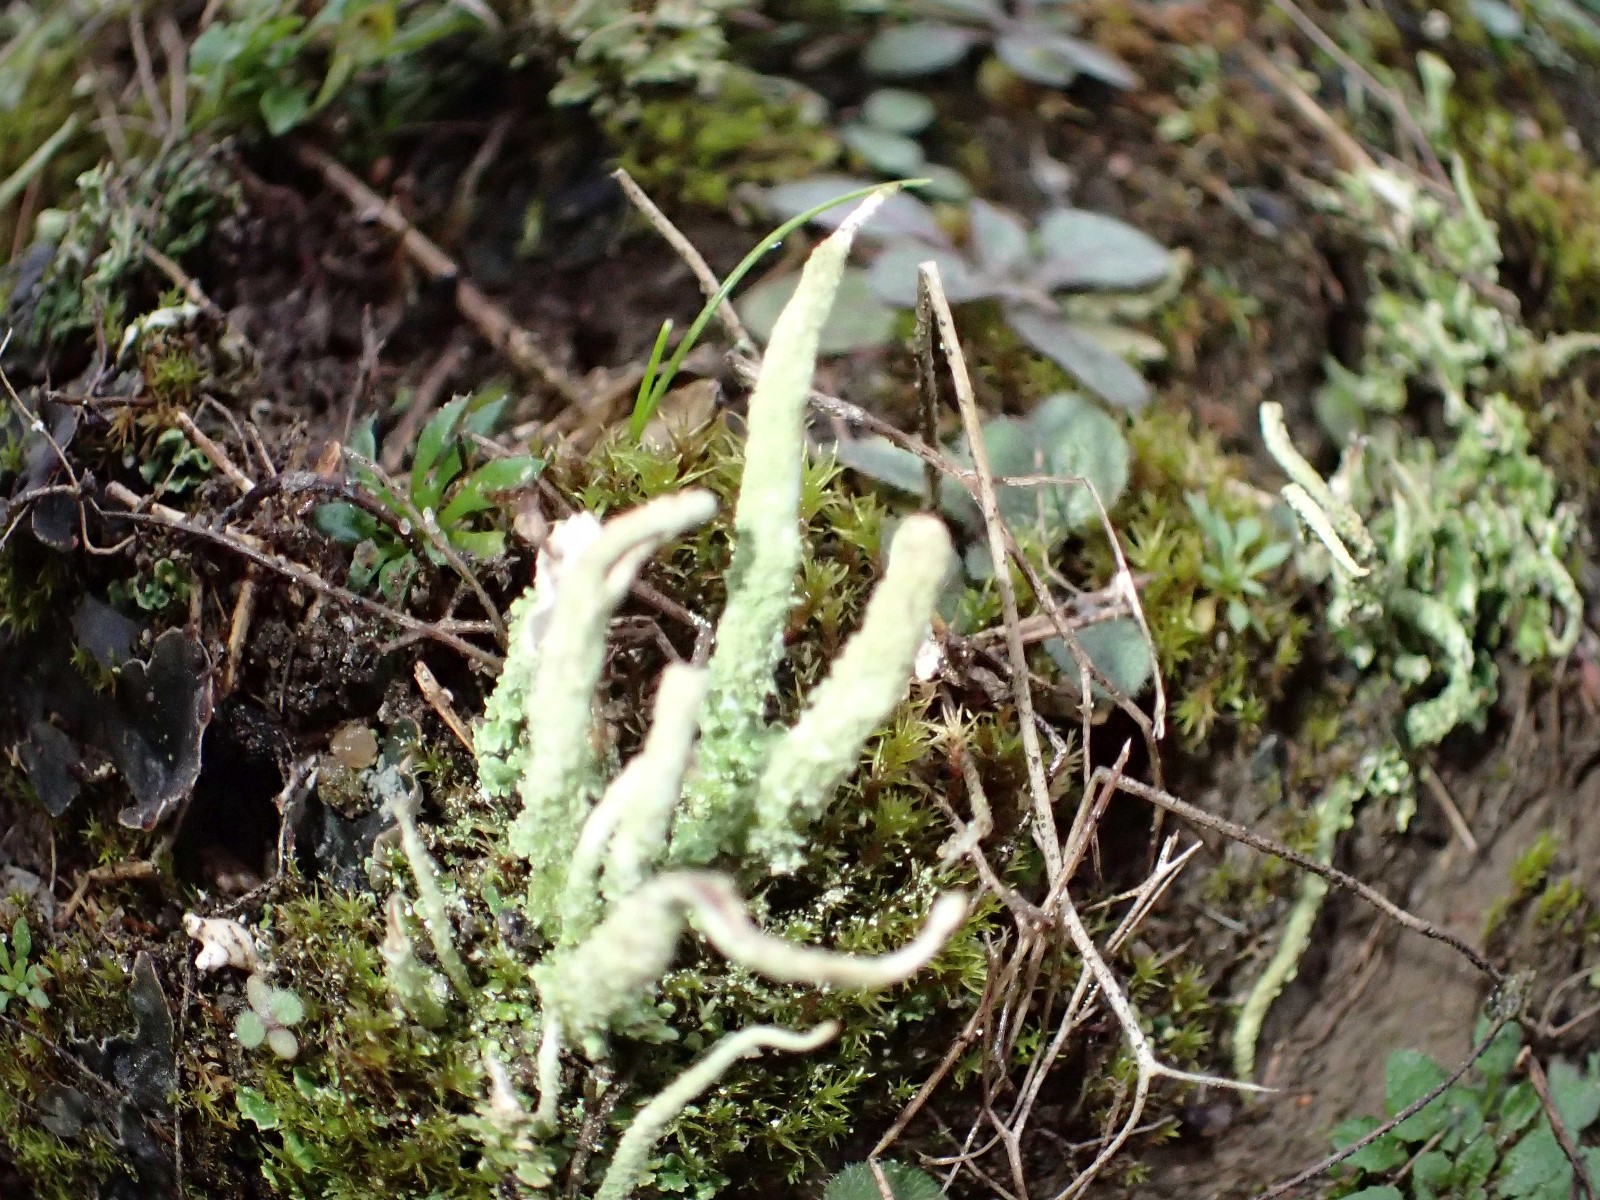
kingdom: Fungi
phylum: Ascomycota
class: Lecanoromycetes
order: Lecanorales
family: Cladoniaceae
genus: Cladonia
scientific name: Cladonia glauca
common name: grågrøn bægerlav
